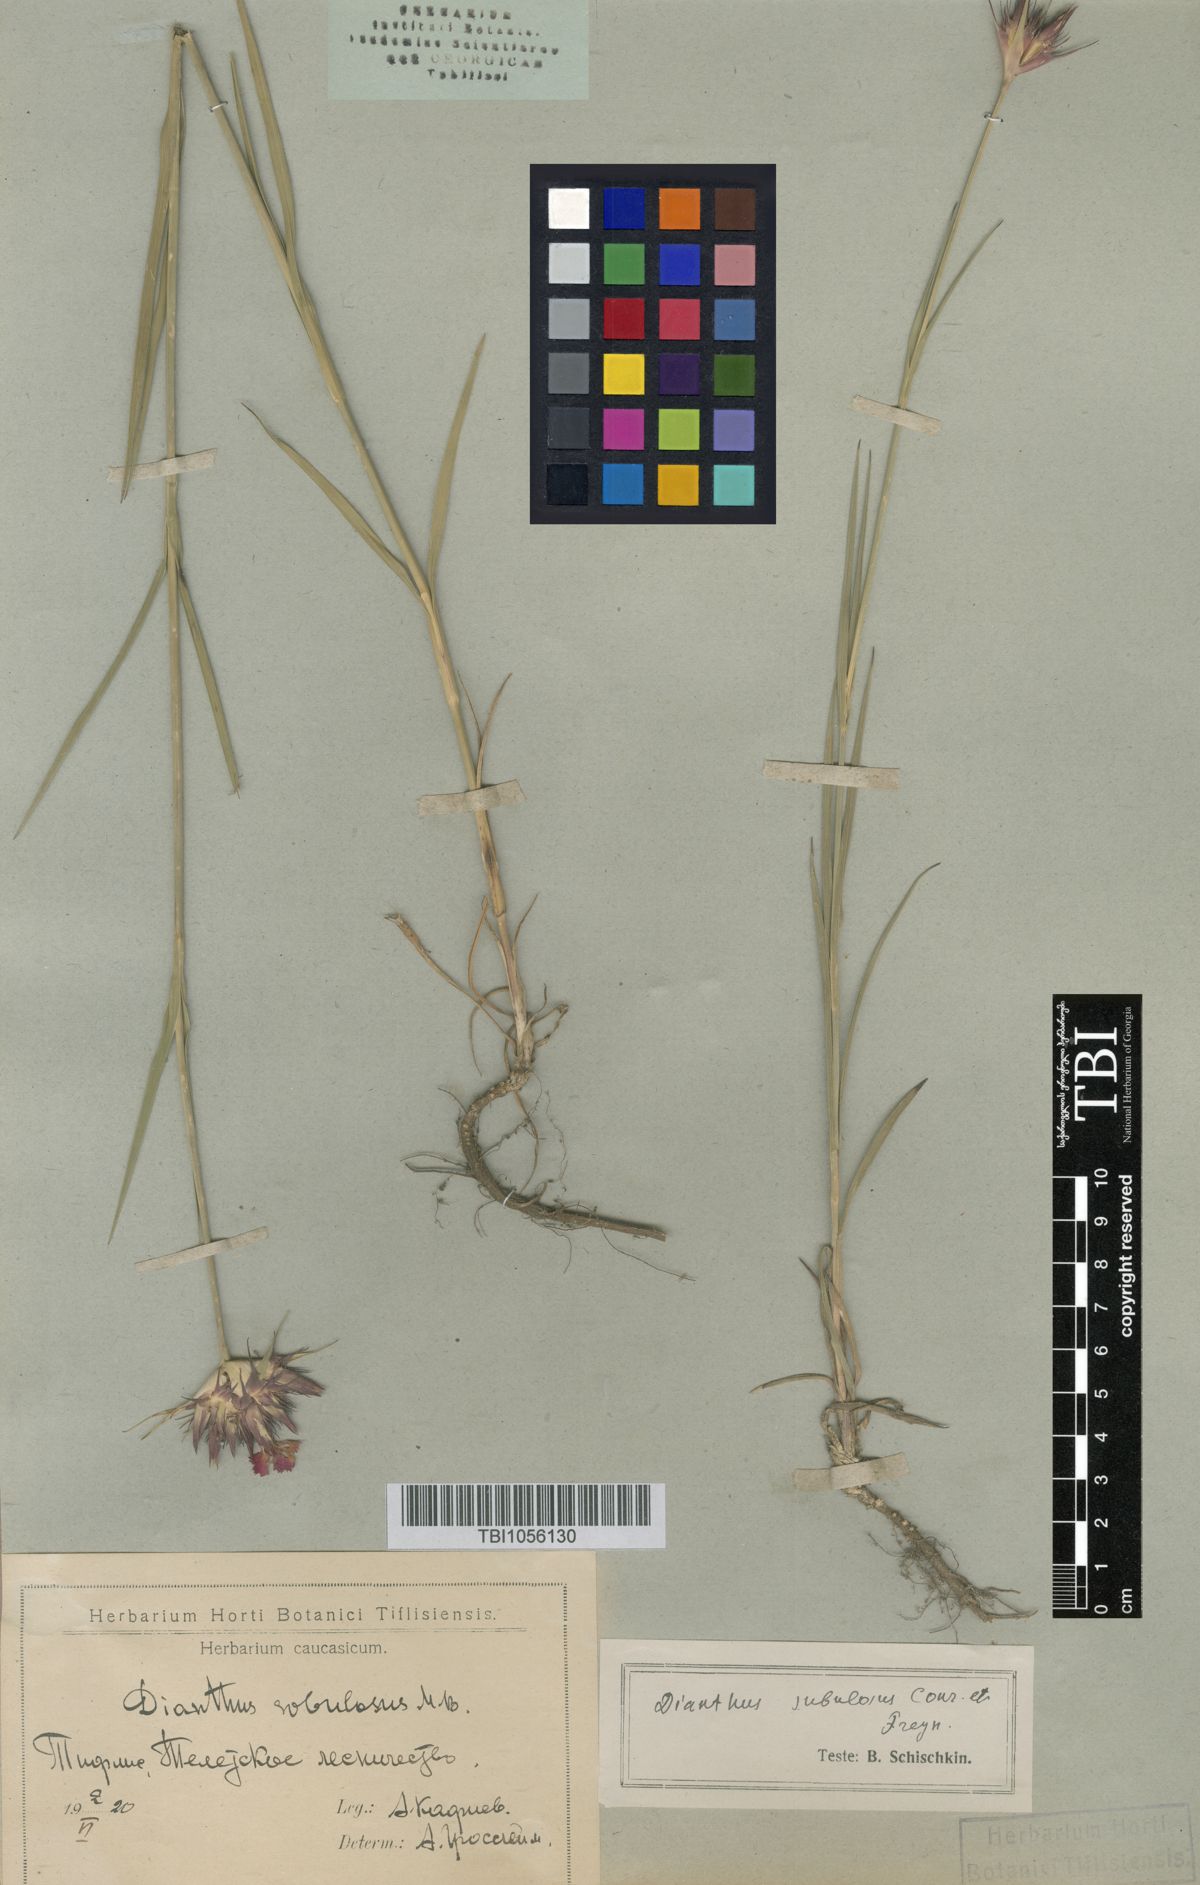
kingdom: Plantae
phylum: Tracheophyta
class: Magnoliopsida
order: Caryophyllales
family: Caryophyllaceae
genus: Dianthus
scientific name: Dianthus subulosus
